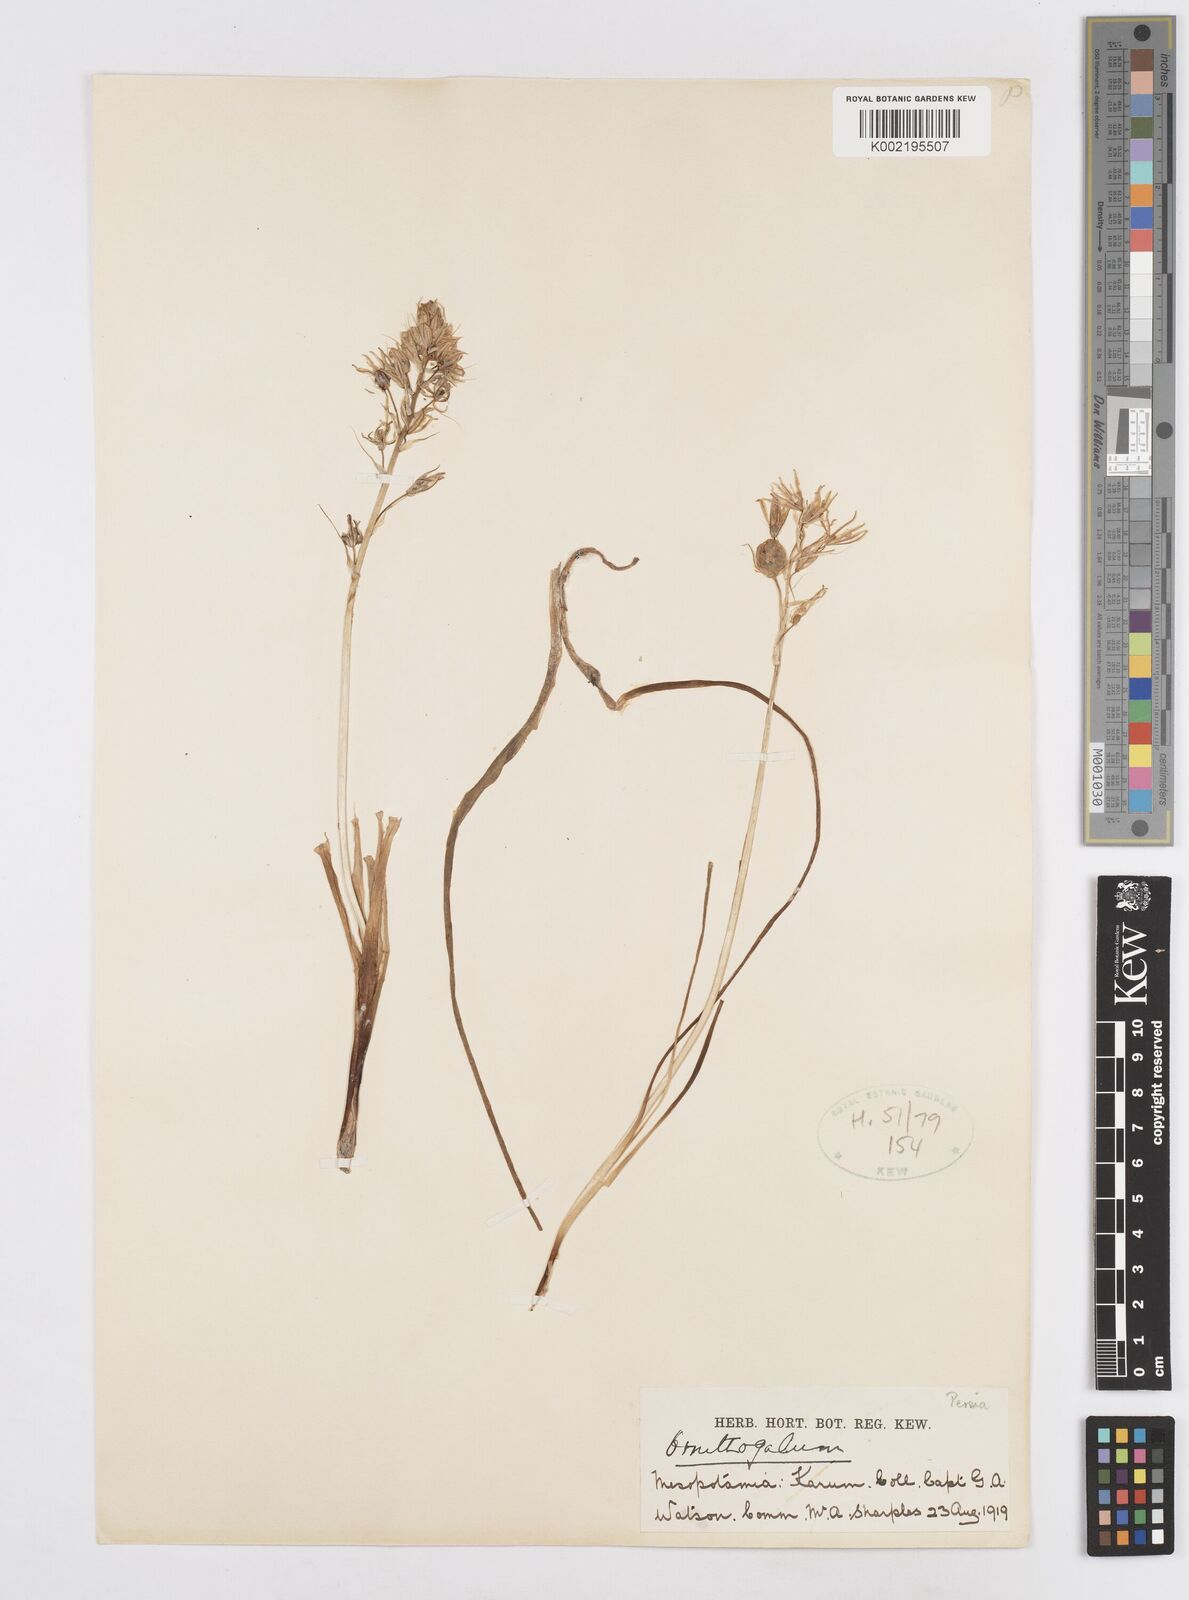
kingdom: Plantae
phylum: Tracheophyta
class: Liliopsida
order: Asparagales
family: Asparagaceae
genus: Ornithogalum
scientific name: Ornithogalum
